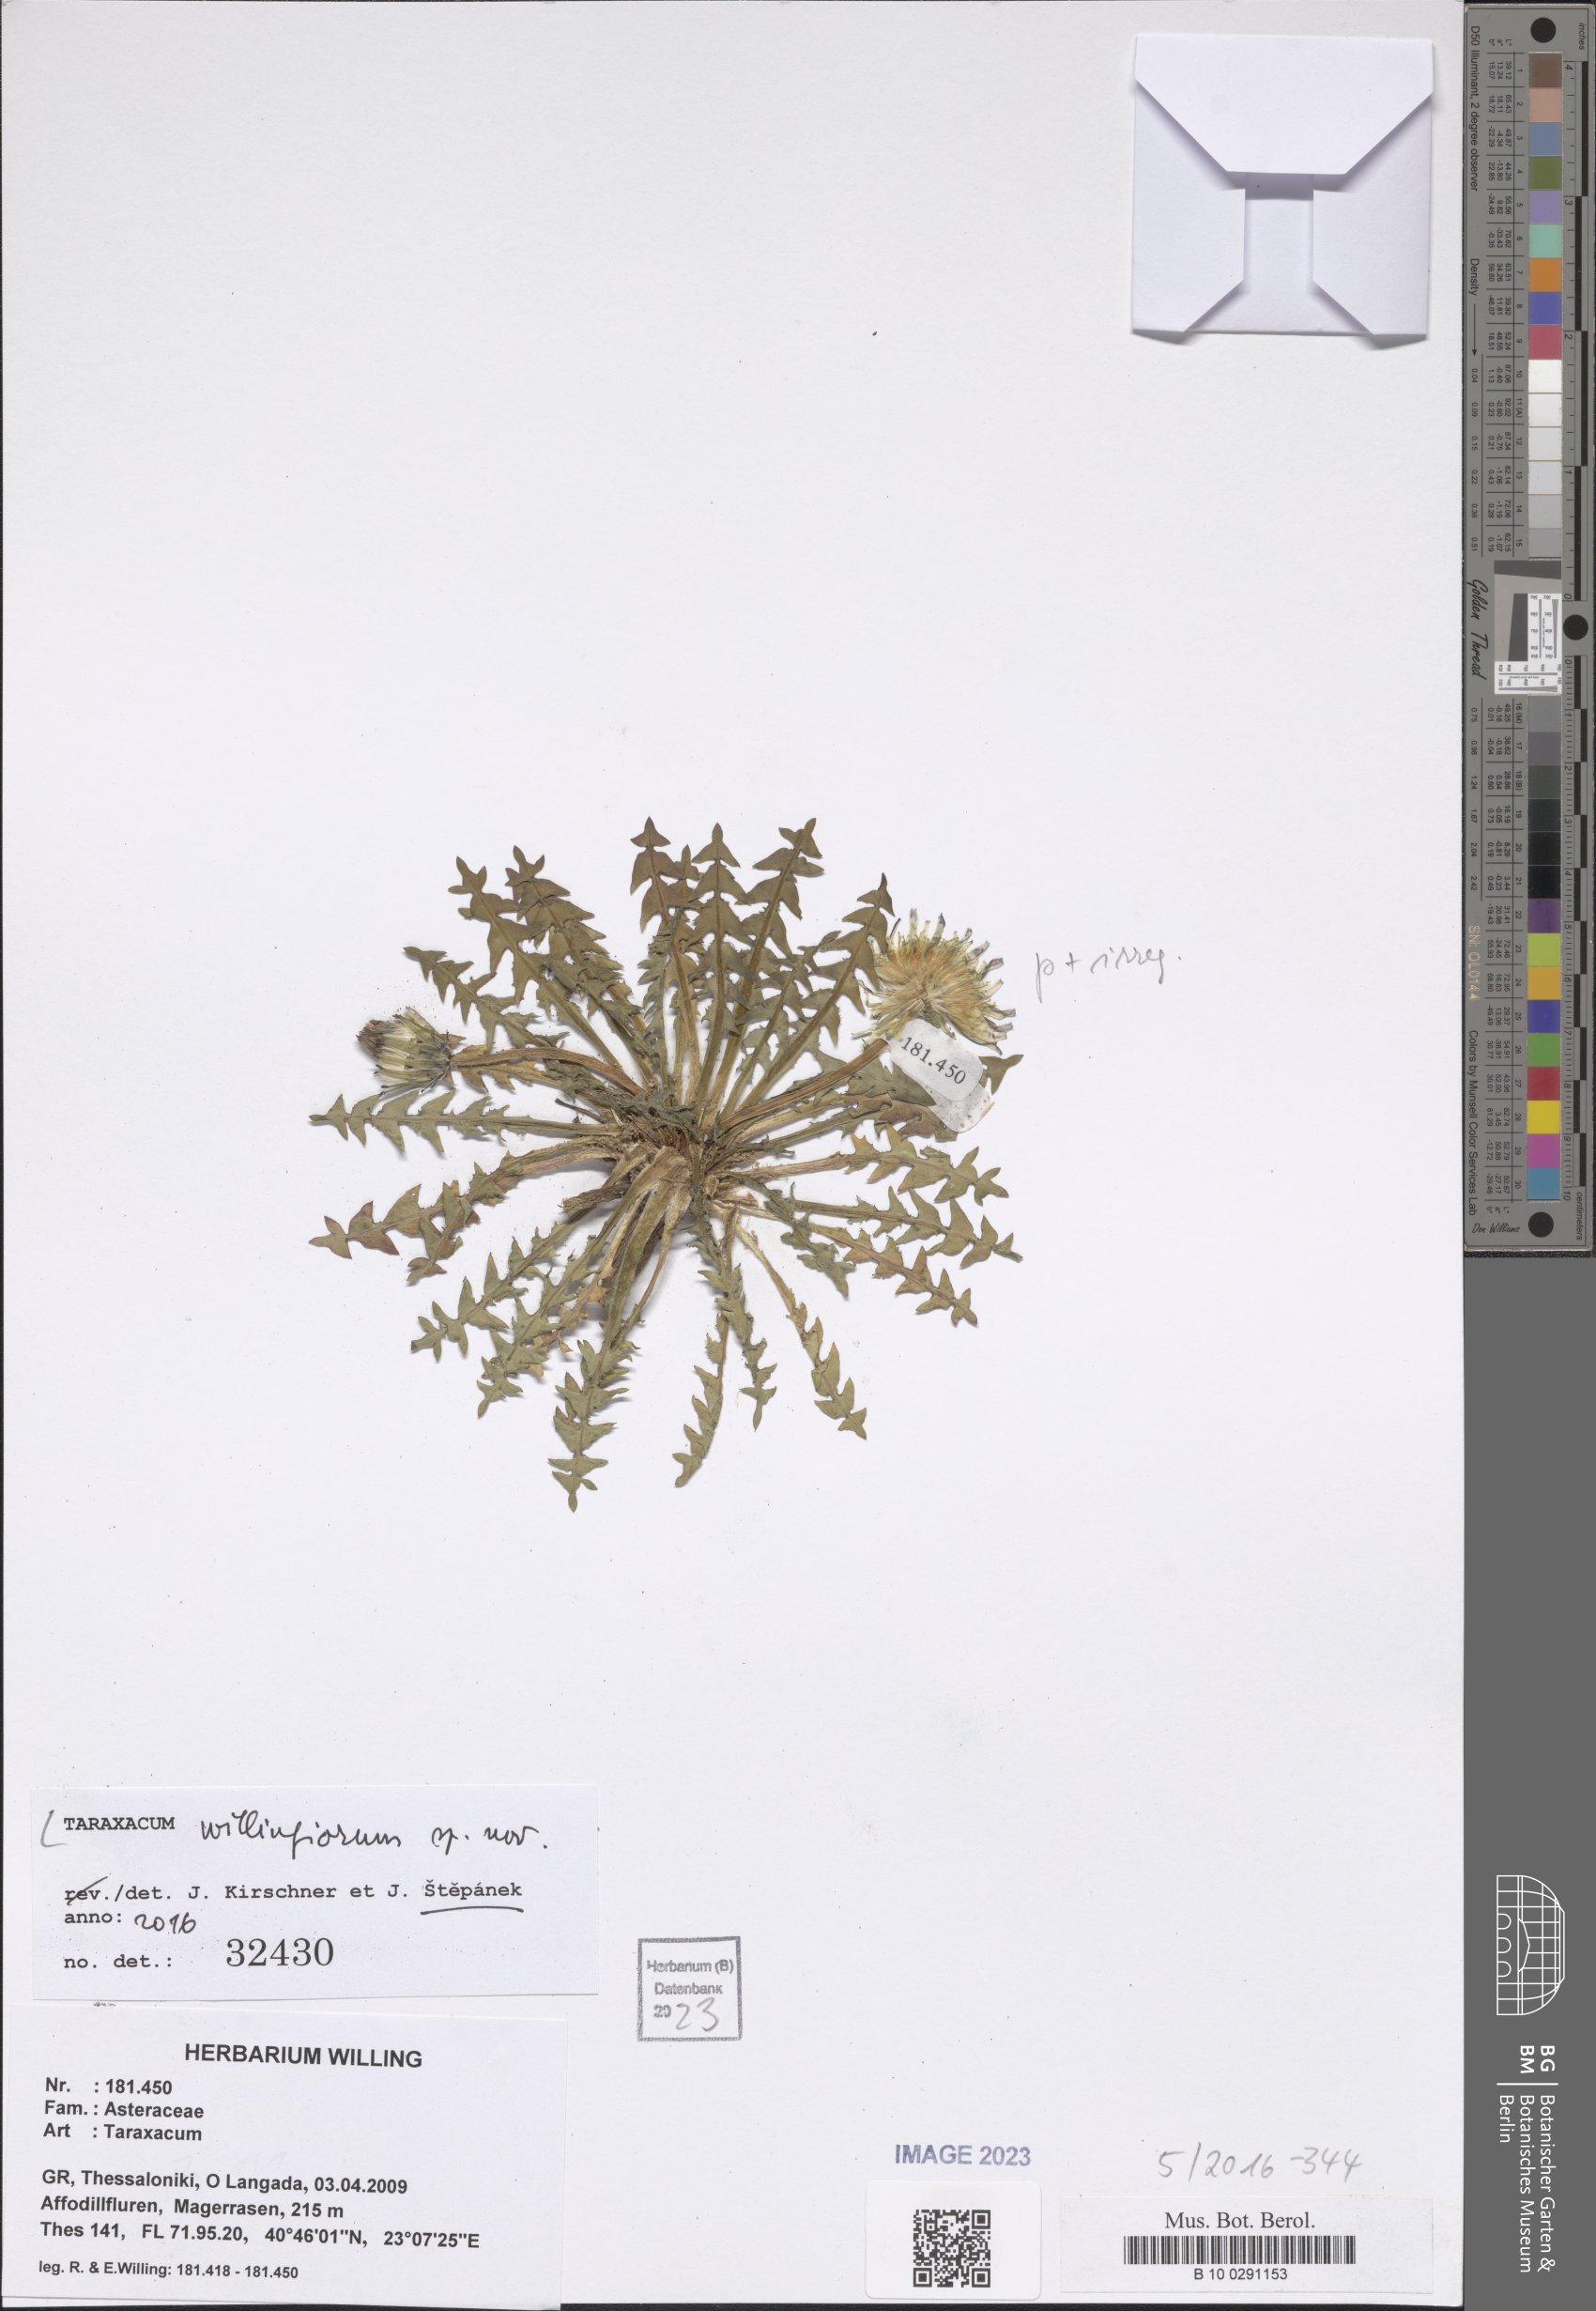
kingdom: Plantae
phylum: Tracheophyta
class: Magnoliopsida
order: Asterales
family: Asteraceae
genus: Taraxacum
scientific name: Taraxacum
